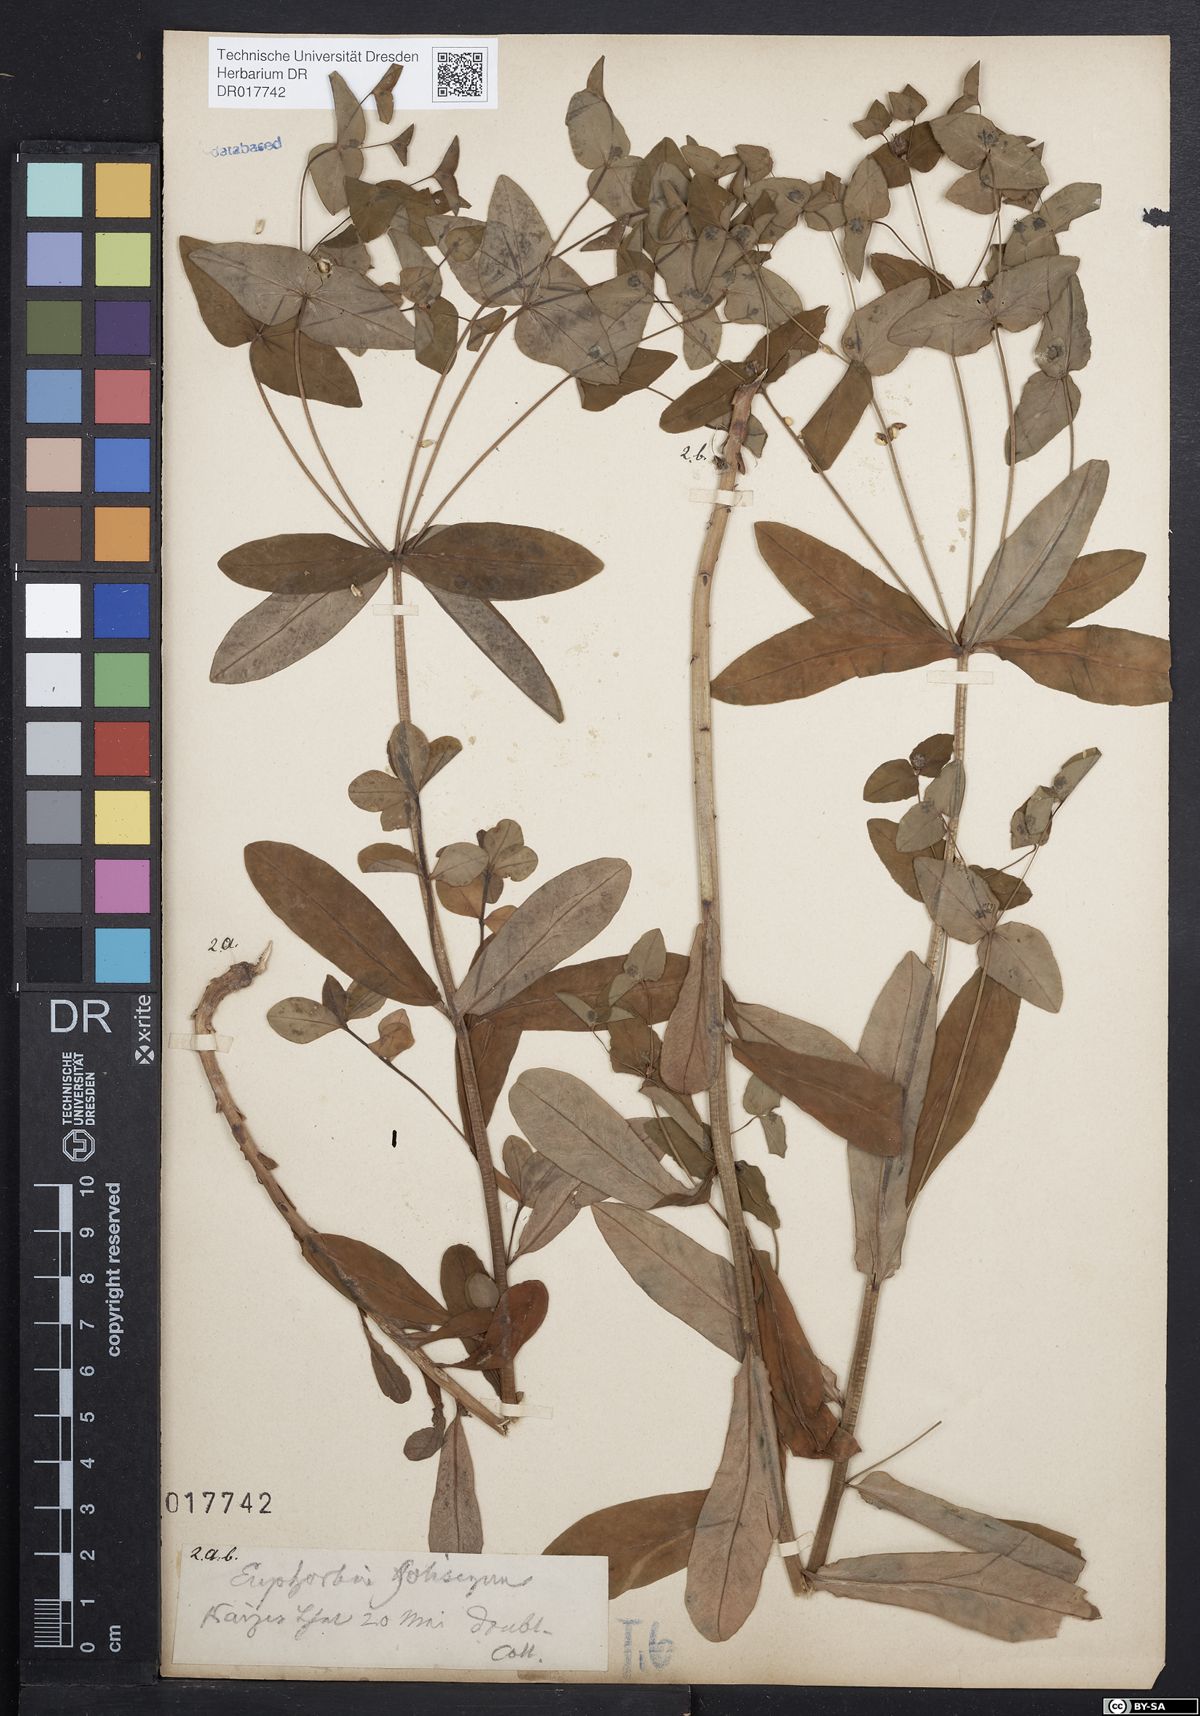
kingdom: Plantae
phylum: Tracheophyta
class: Magnoliopsida
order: Malpighiales
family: Euphorbiaceae
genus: Euphorbia
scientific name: Euphorbia dulcis
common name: Sweet spurge
